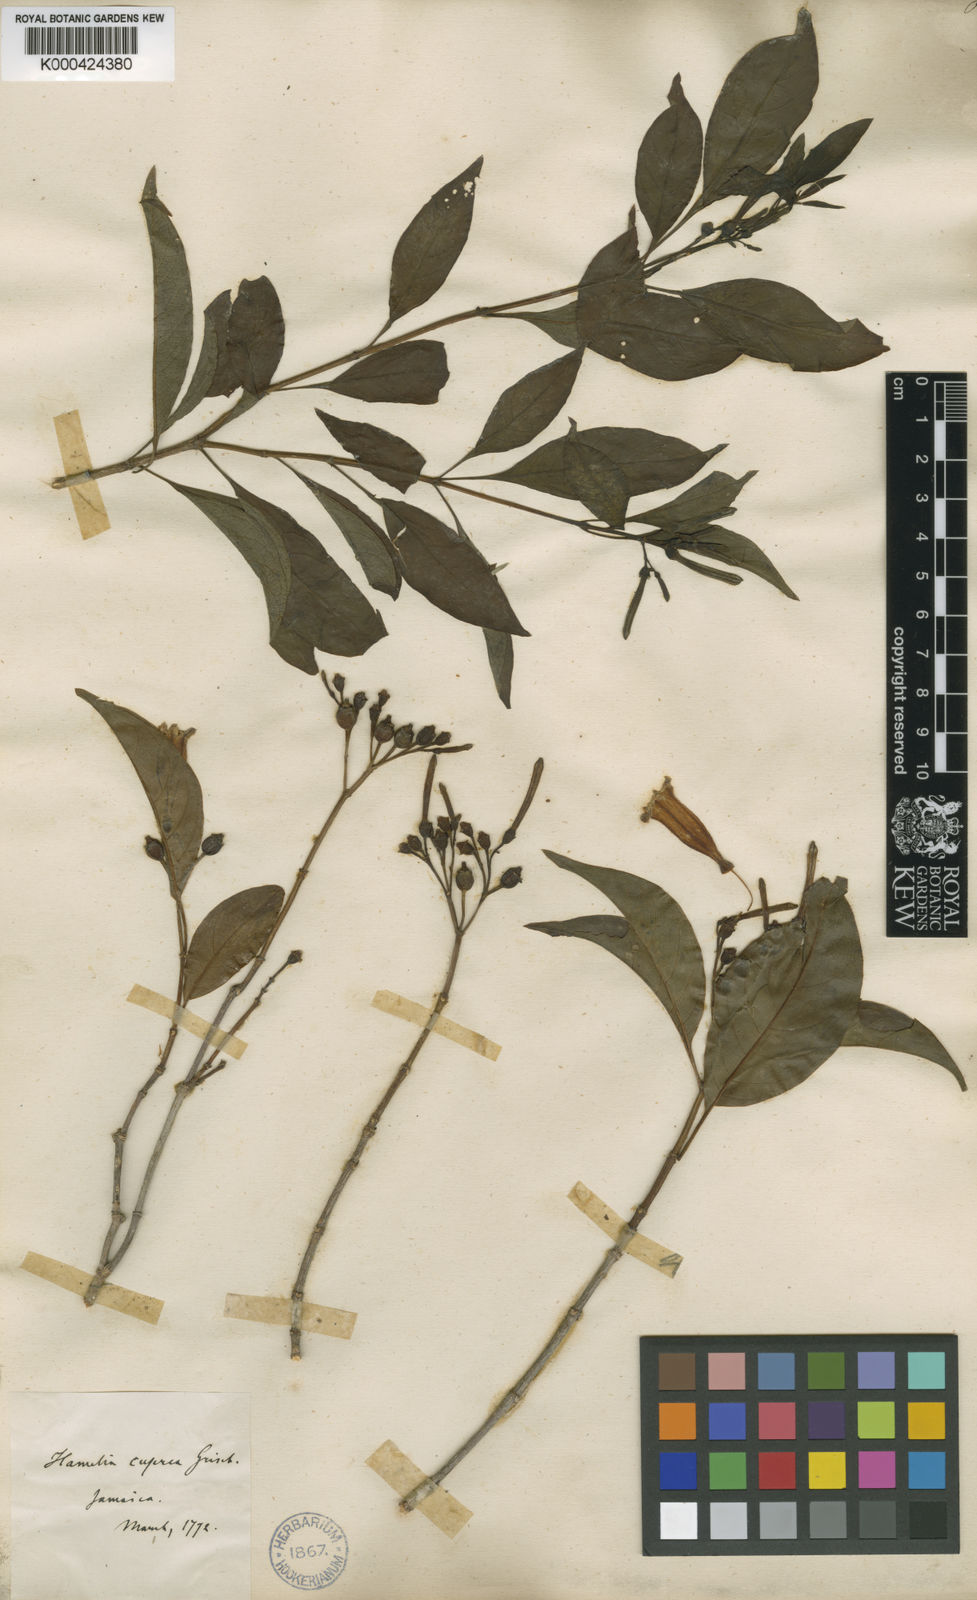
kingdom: Plantae
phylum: Tracheophyta
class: Magnoliopsida
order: Gentianales
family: Rubiaceae
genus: Hamelia
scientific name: Hamelia cuprea
